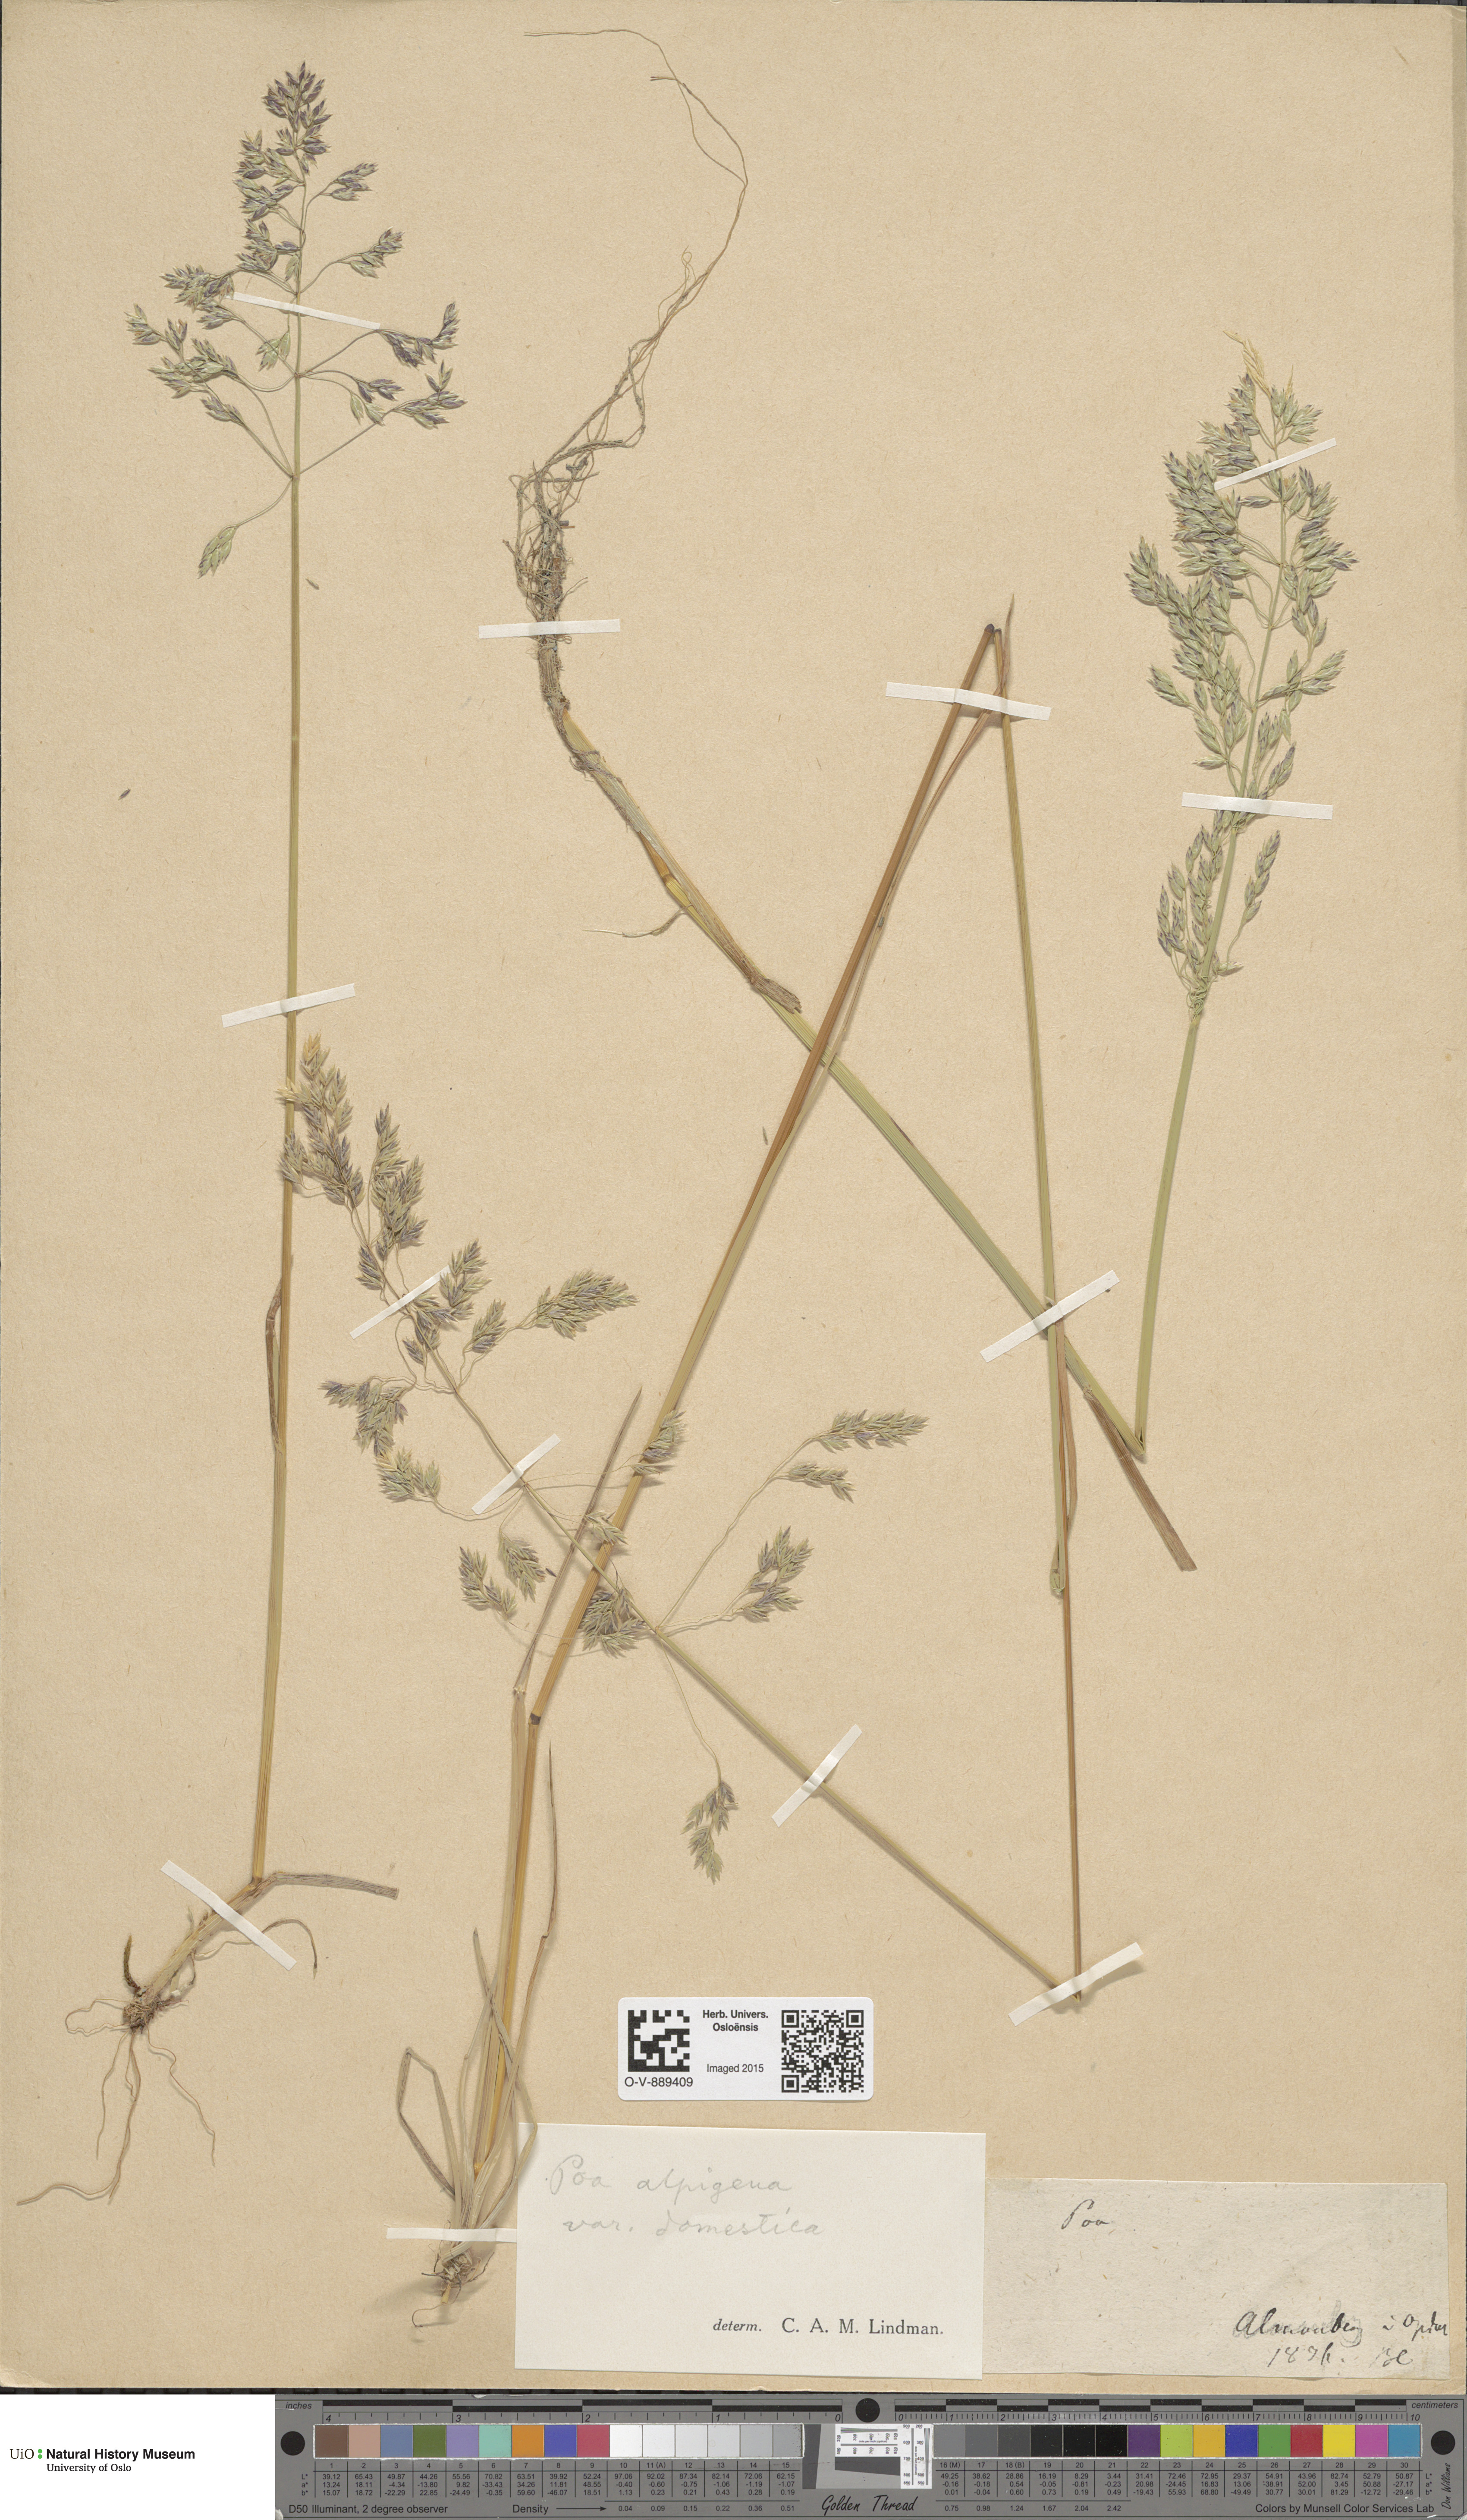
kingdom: Plantae
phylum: Tracheophyta
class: Liliopsida
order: Poales
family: Poaceae
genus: Poa
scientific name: Poa pratensis
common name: Kentucky bluegrass
